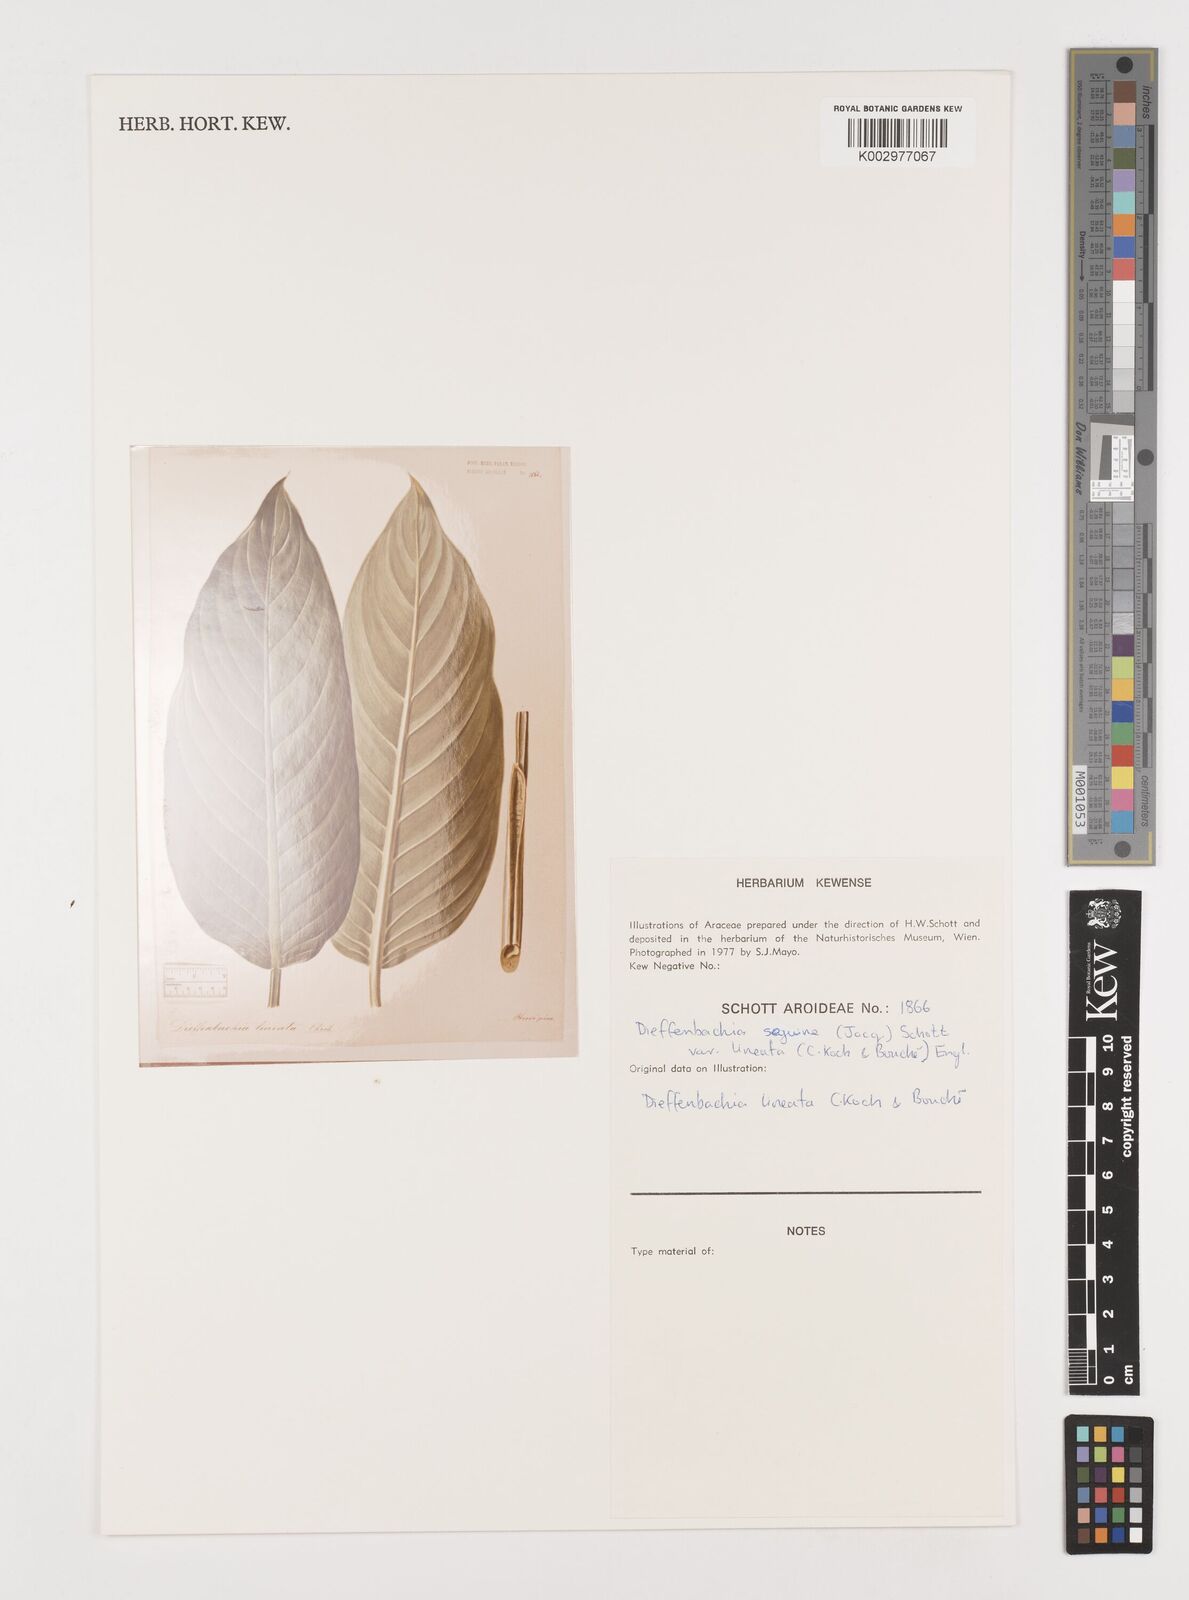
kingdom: Plantae
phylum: Tracheophyta
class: Liliopsida
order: Alismatales
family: Araceae
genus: Dieffenbachia
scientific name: Dieffenbachia seguine
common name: Dumbcane
